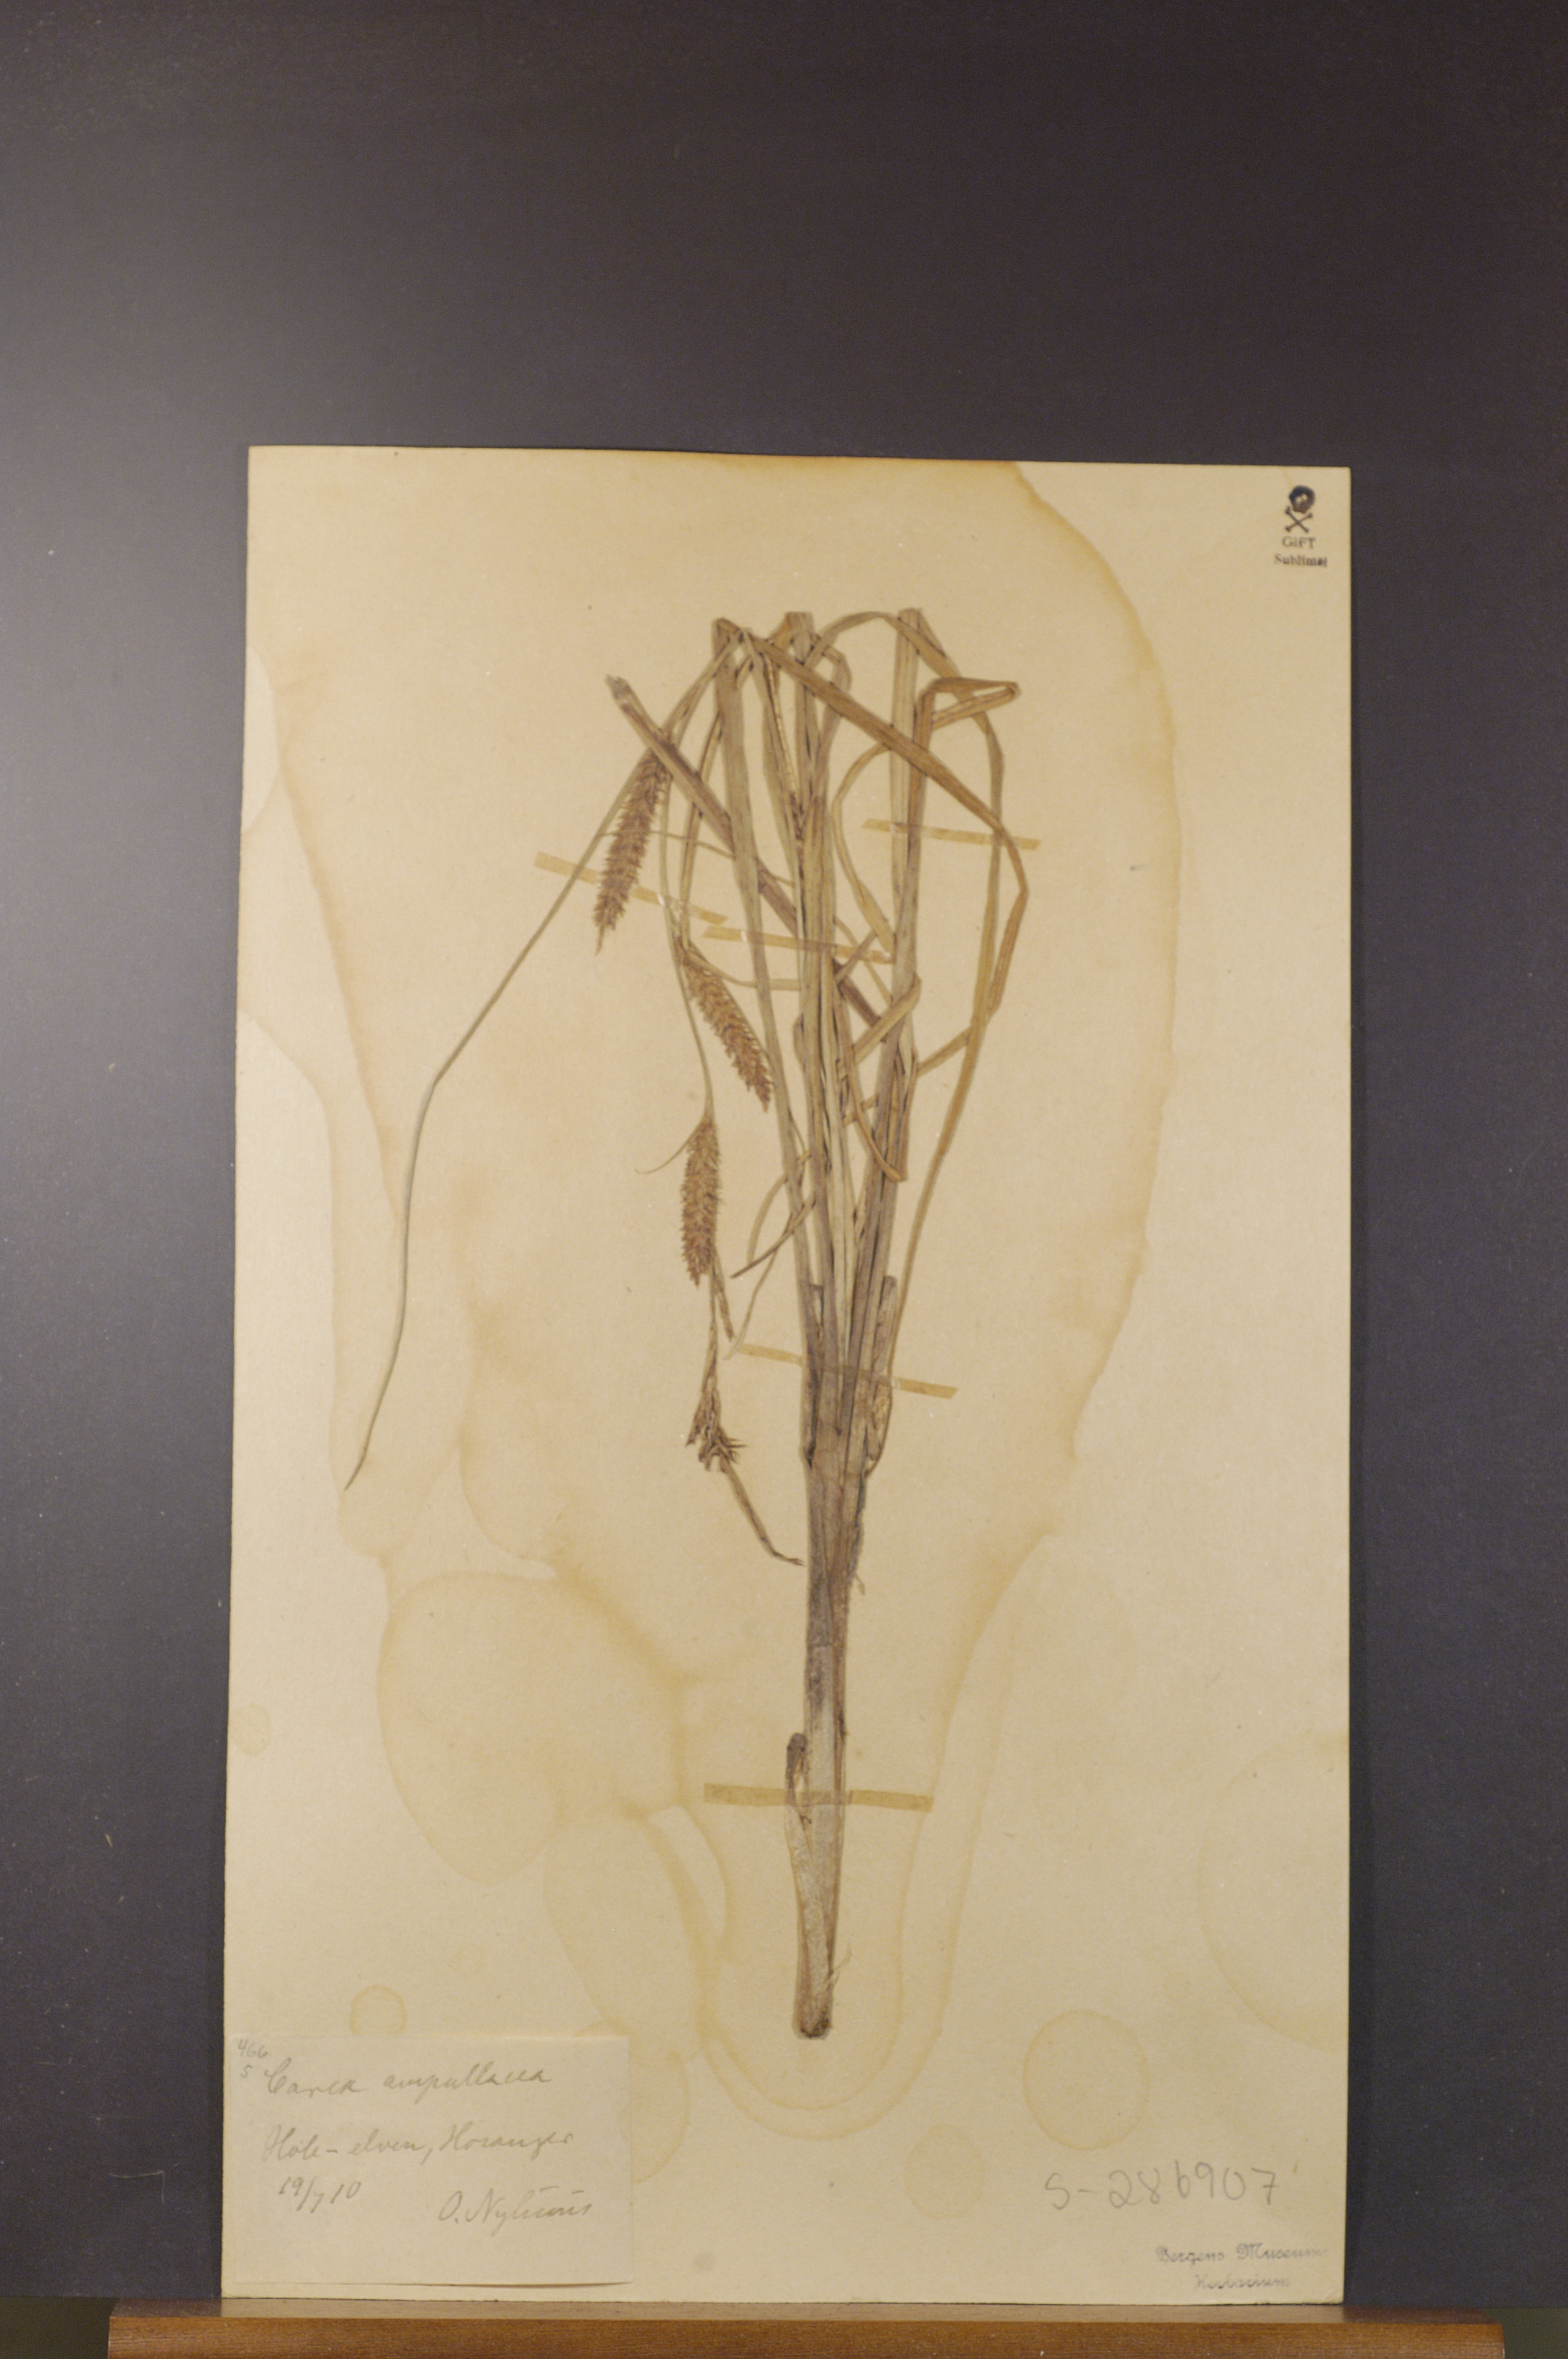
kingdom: Plantae
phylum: Tracheophyta
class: Liliopsida
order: Poales
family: Cyperaceae
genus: Carex
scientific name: Carex rostrata
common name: Bottle sedge
